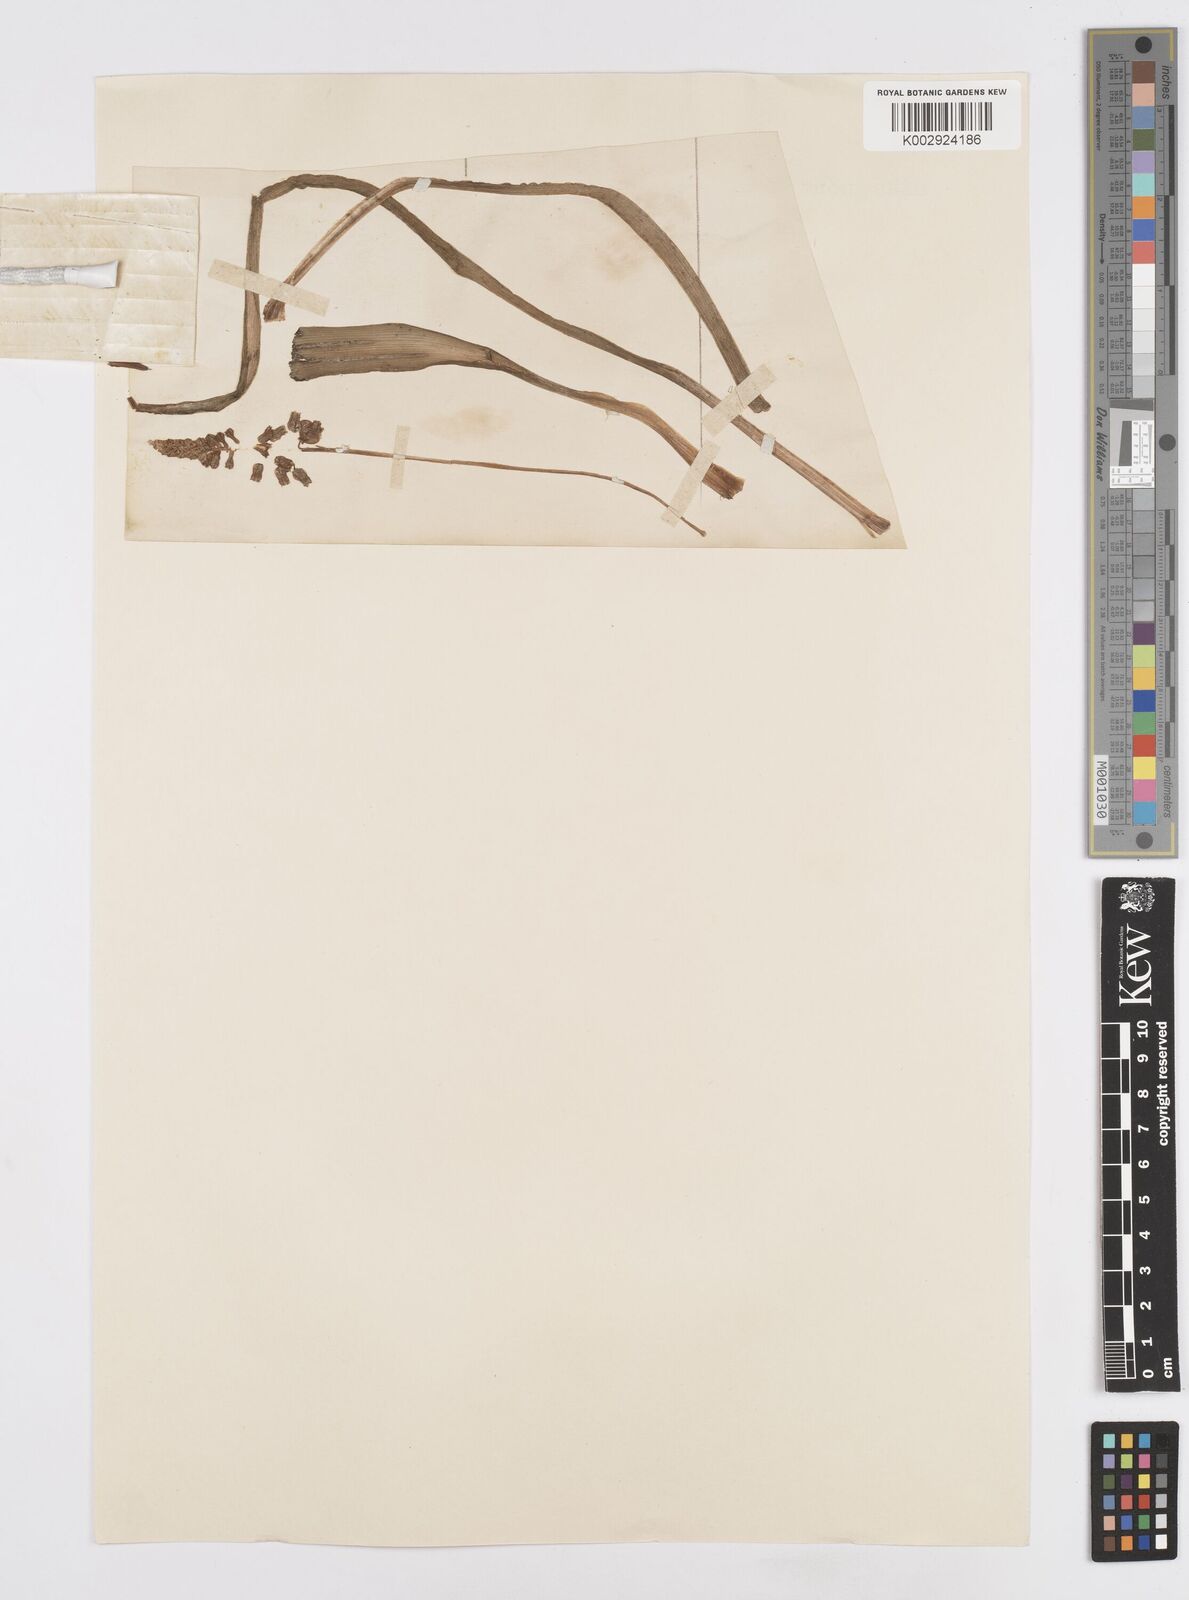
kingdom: Plantae
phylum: Tracheophyta
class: Liliopsida
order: Asparagales
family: Asparagaceae
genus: Bellevalia
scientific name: Bellevalia
